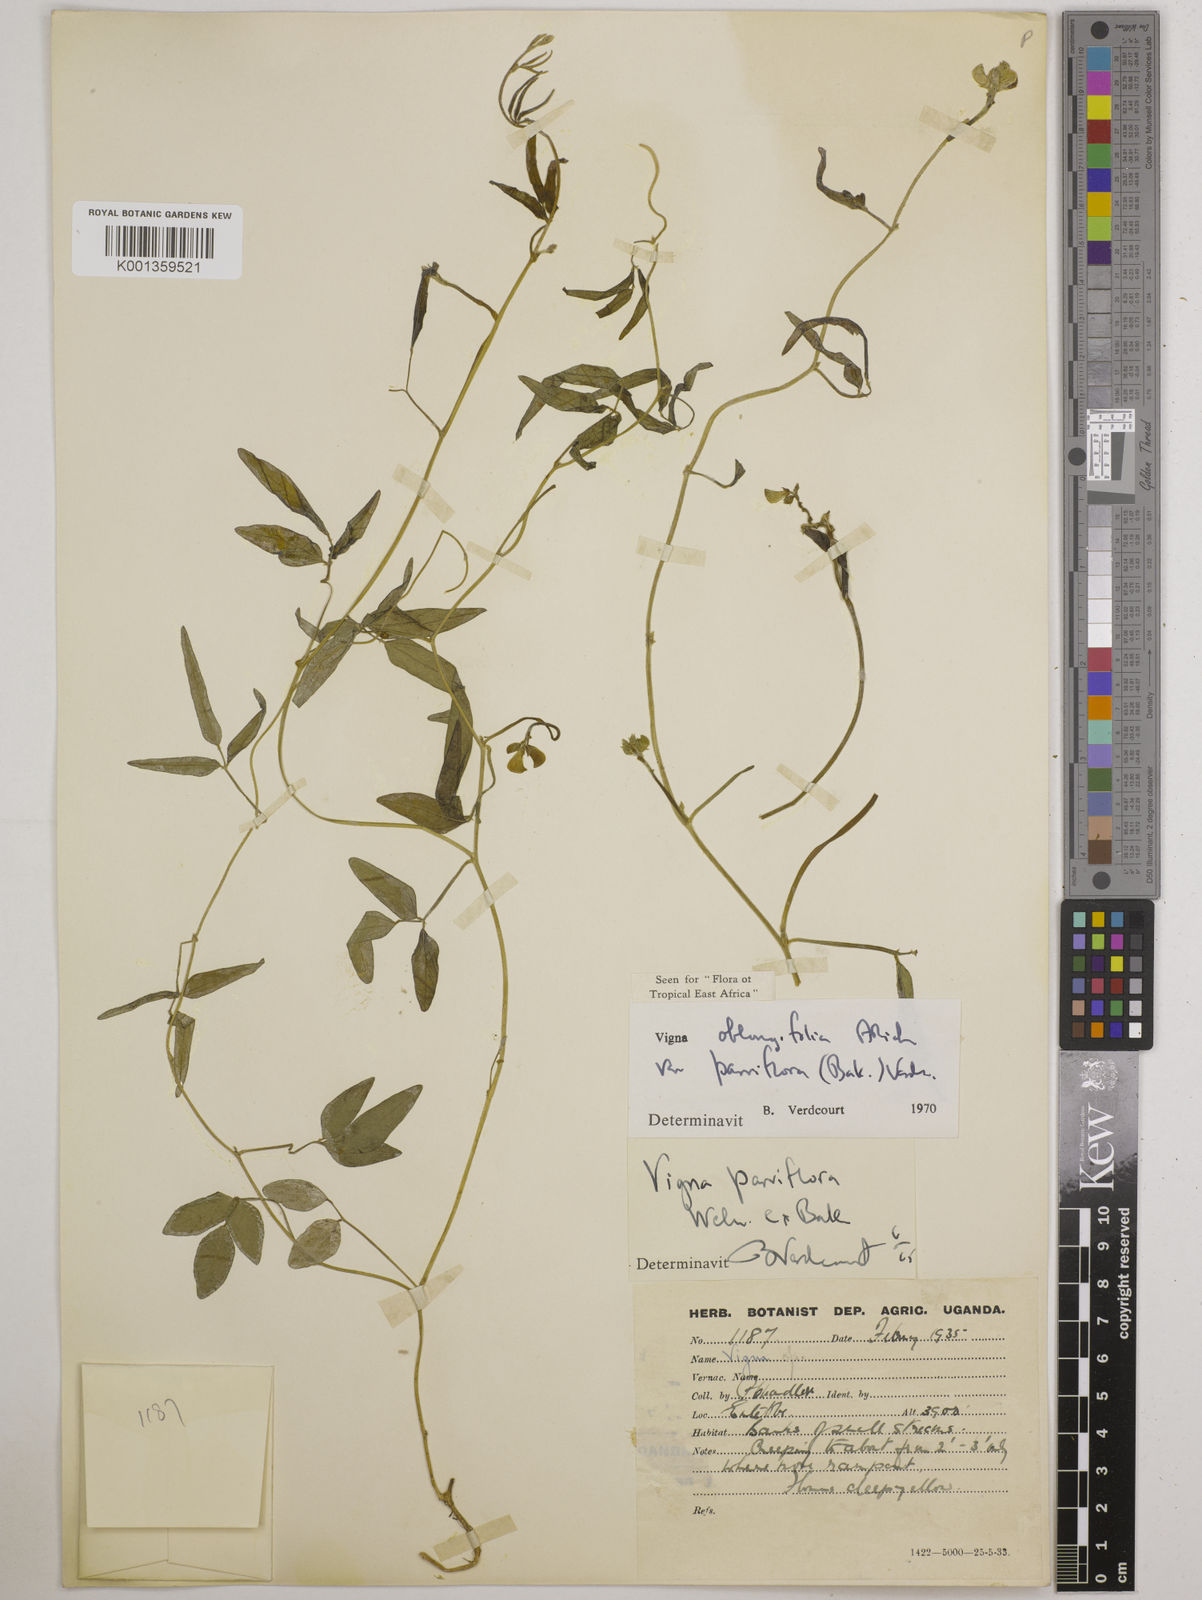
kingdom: Plantae
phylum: Tracheophyta
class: Magnoliopsida
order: Fabales
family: Fabaceae
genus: Vigna
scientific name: Vigna
